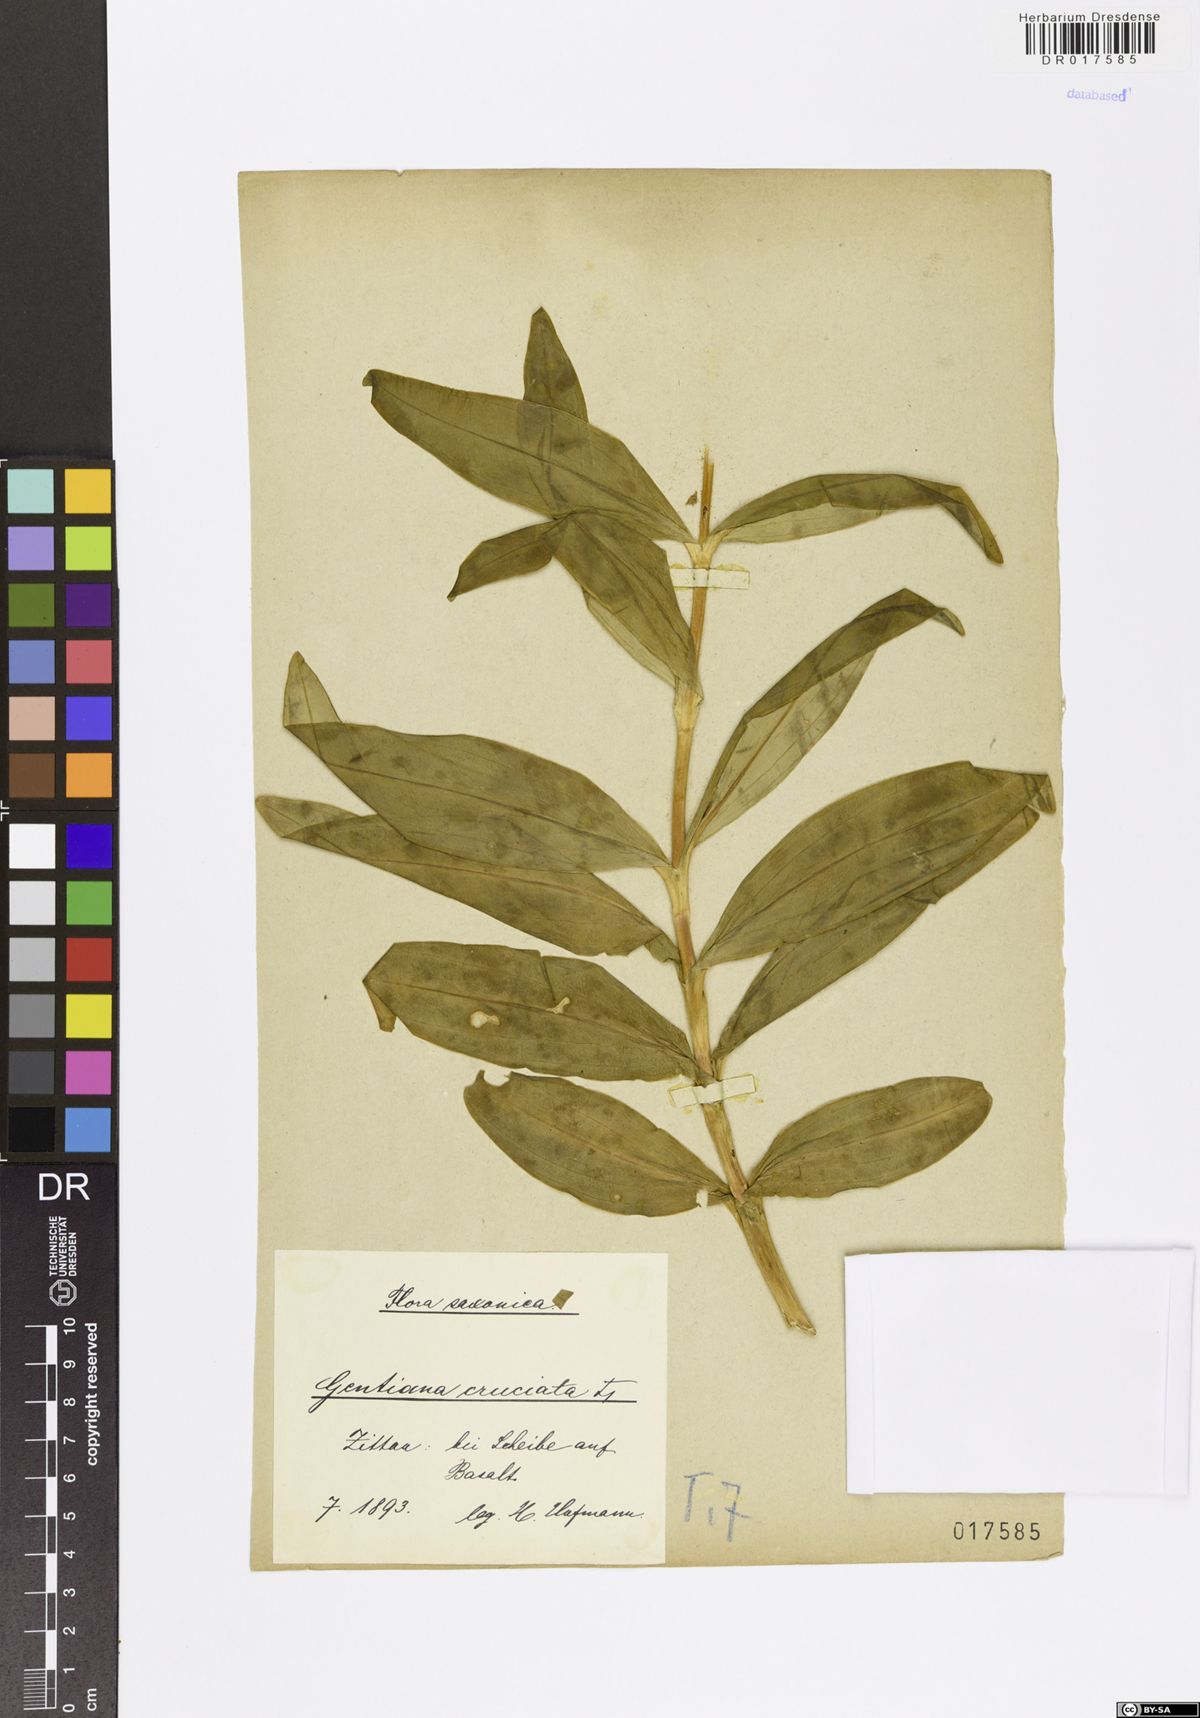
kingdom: Plantae
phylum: Tracheophyta
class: Magnoliopsida
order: Gentianales
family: Gentianaceae
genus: Gentiana
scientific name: Gentiana cruciata
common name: Cross gentian
